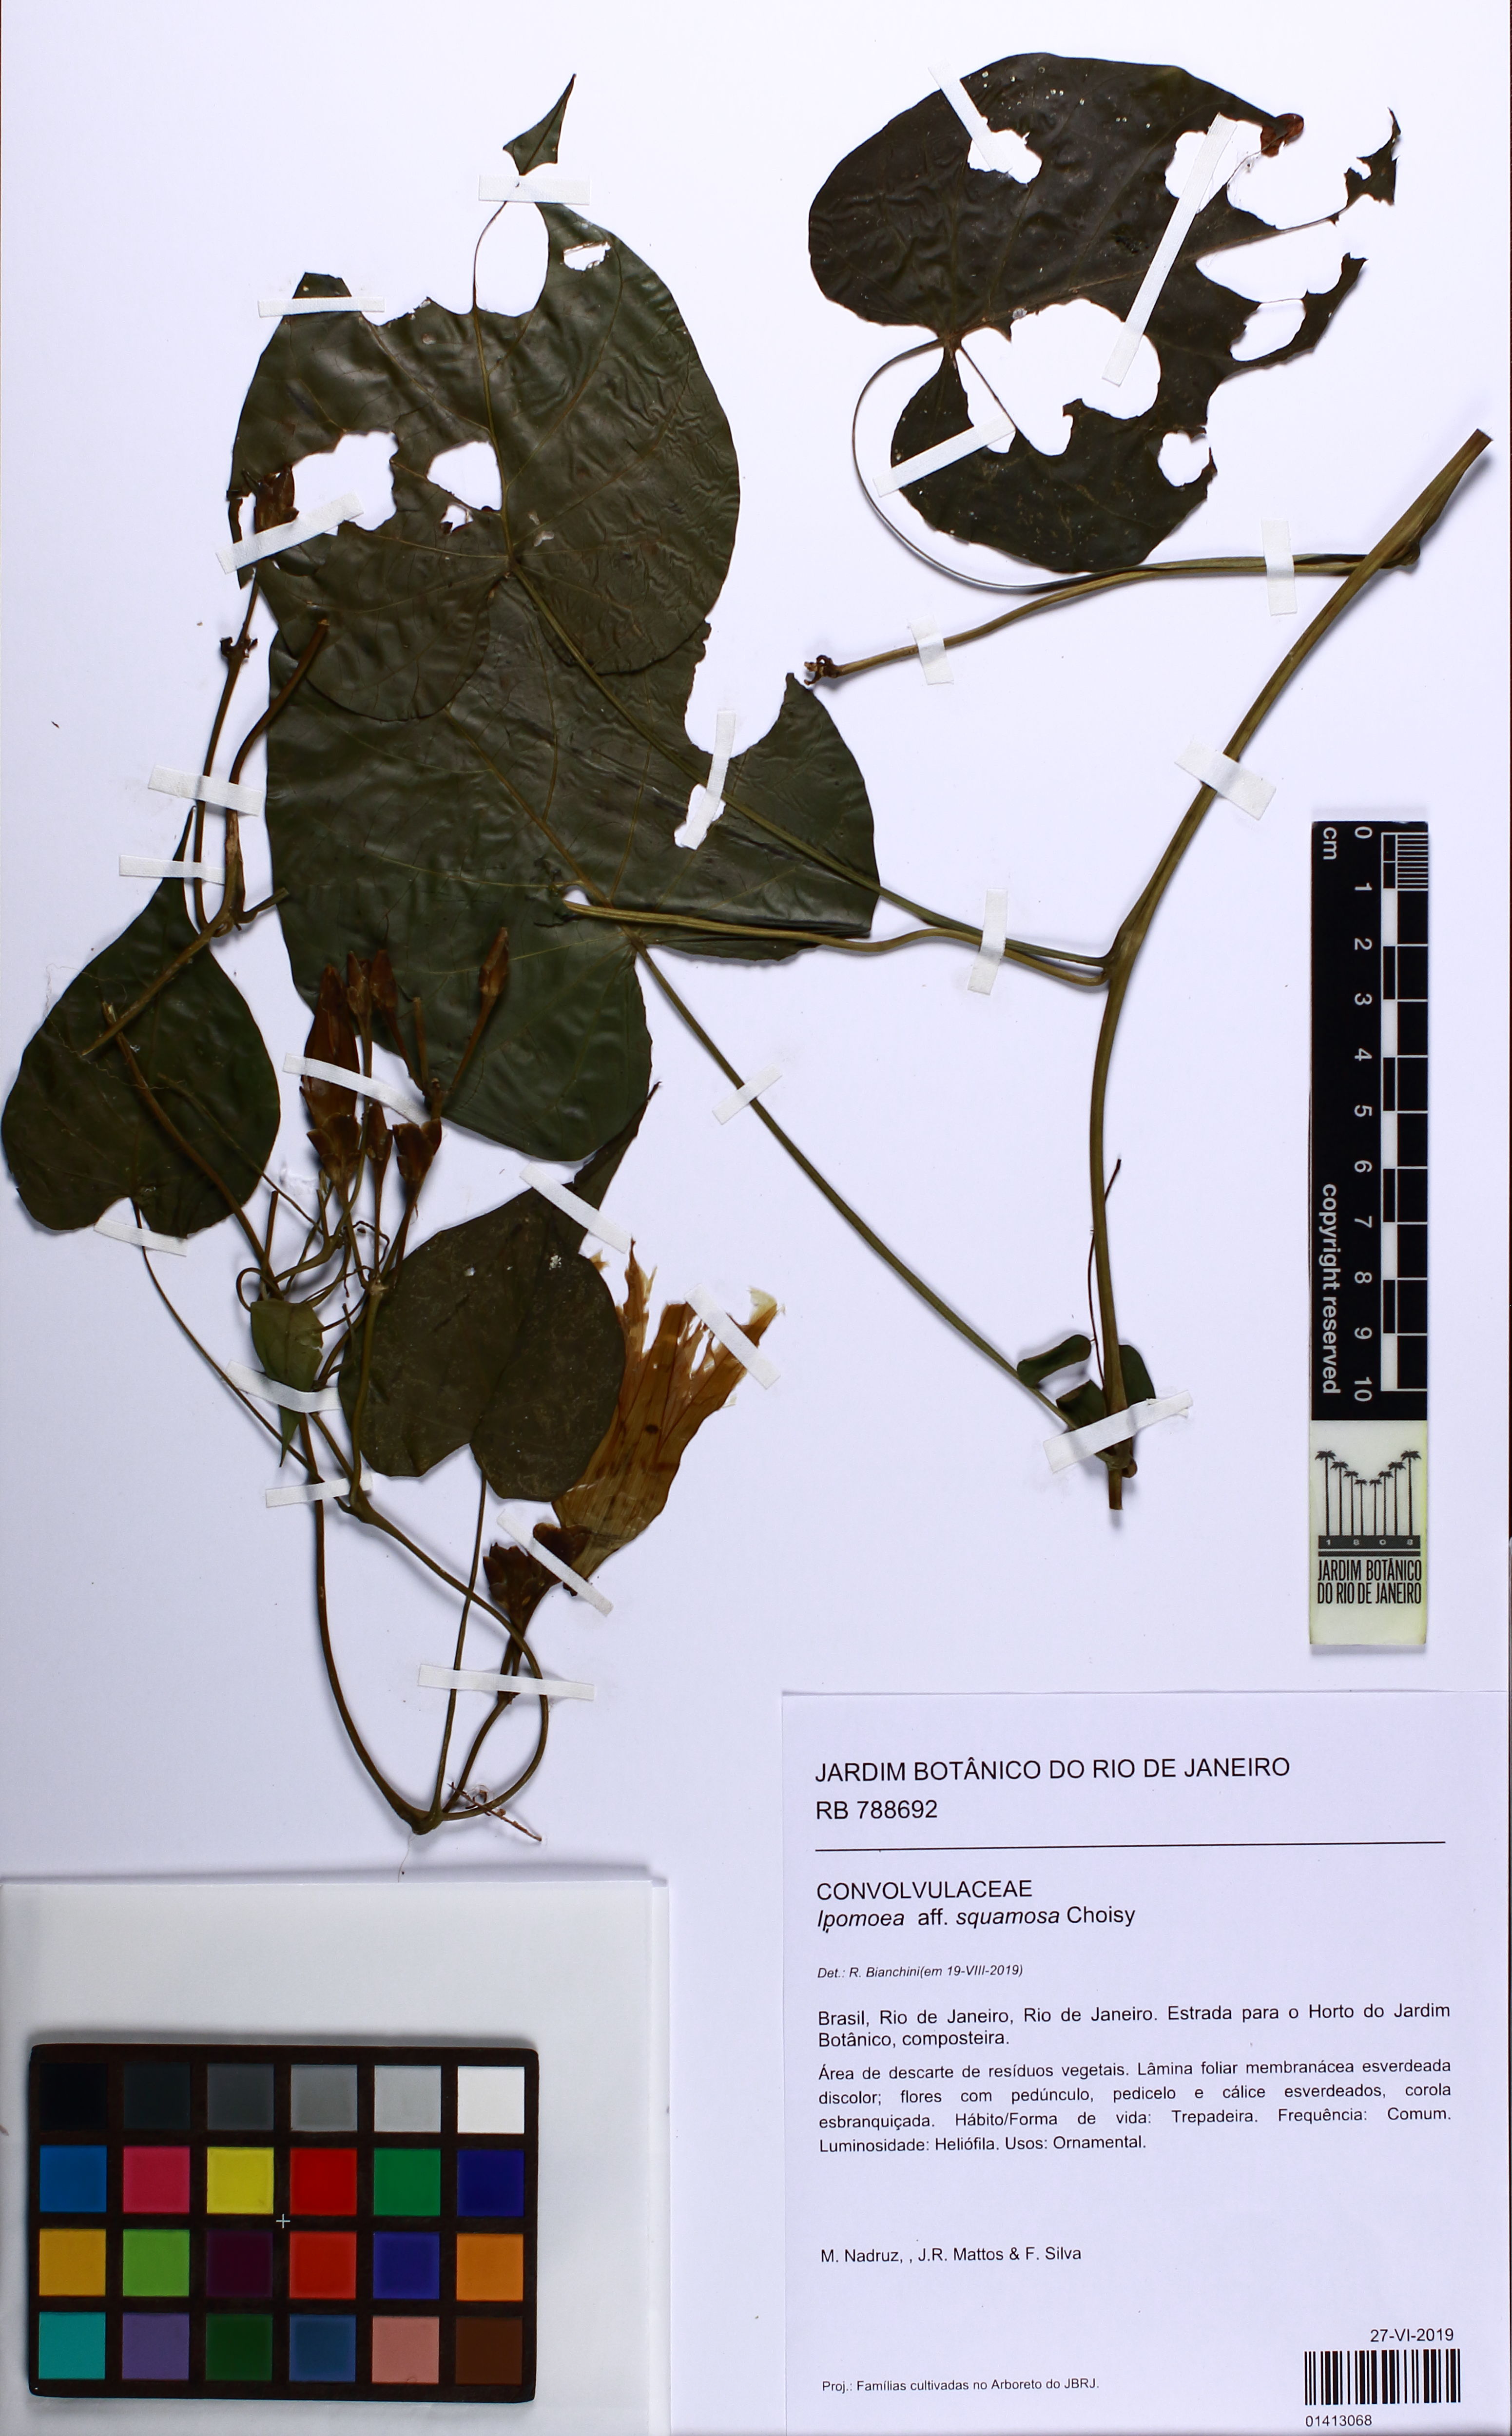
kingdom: Plantae
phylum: Tracheophyta
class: Magnoliopsida
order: Solanales
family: Convolvulaceae
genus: Ipomoea
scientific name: Ipomoea squamosa
